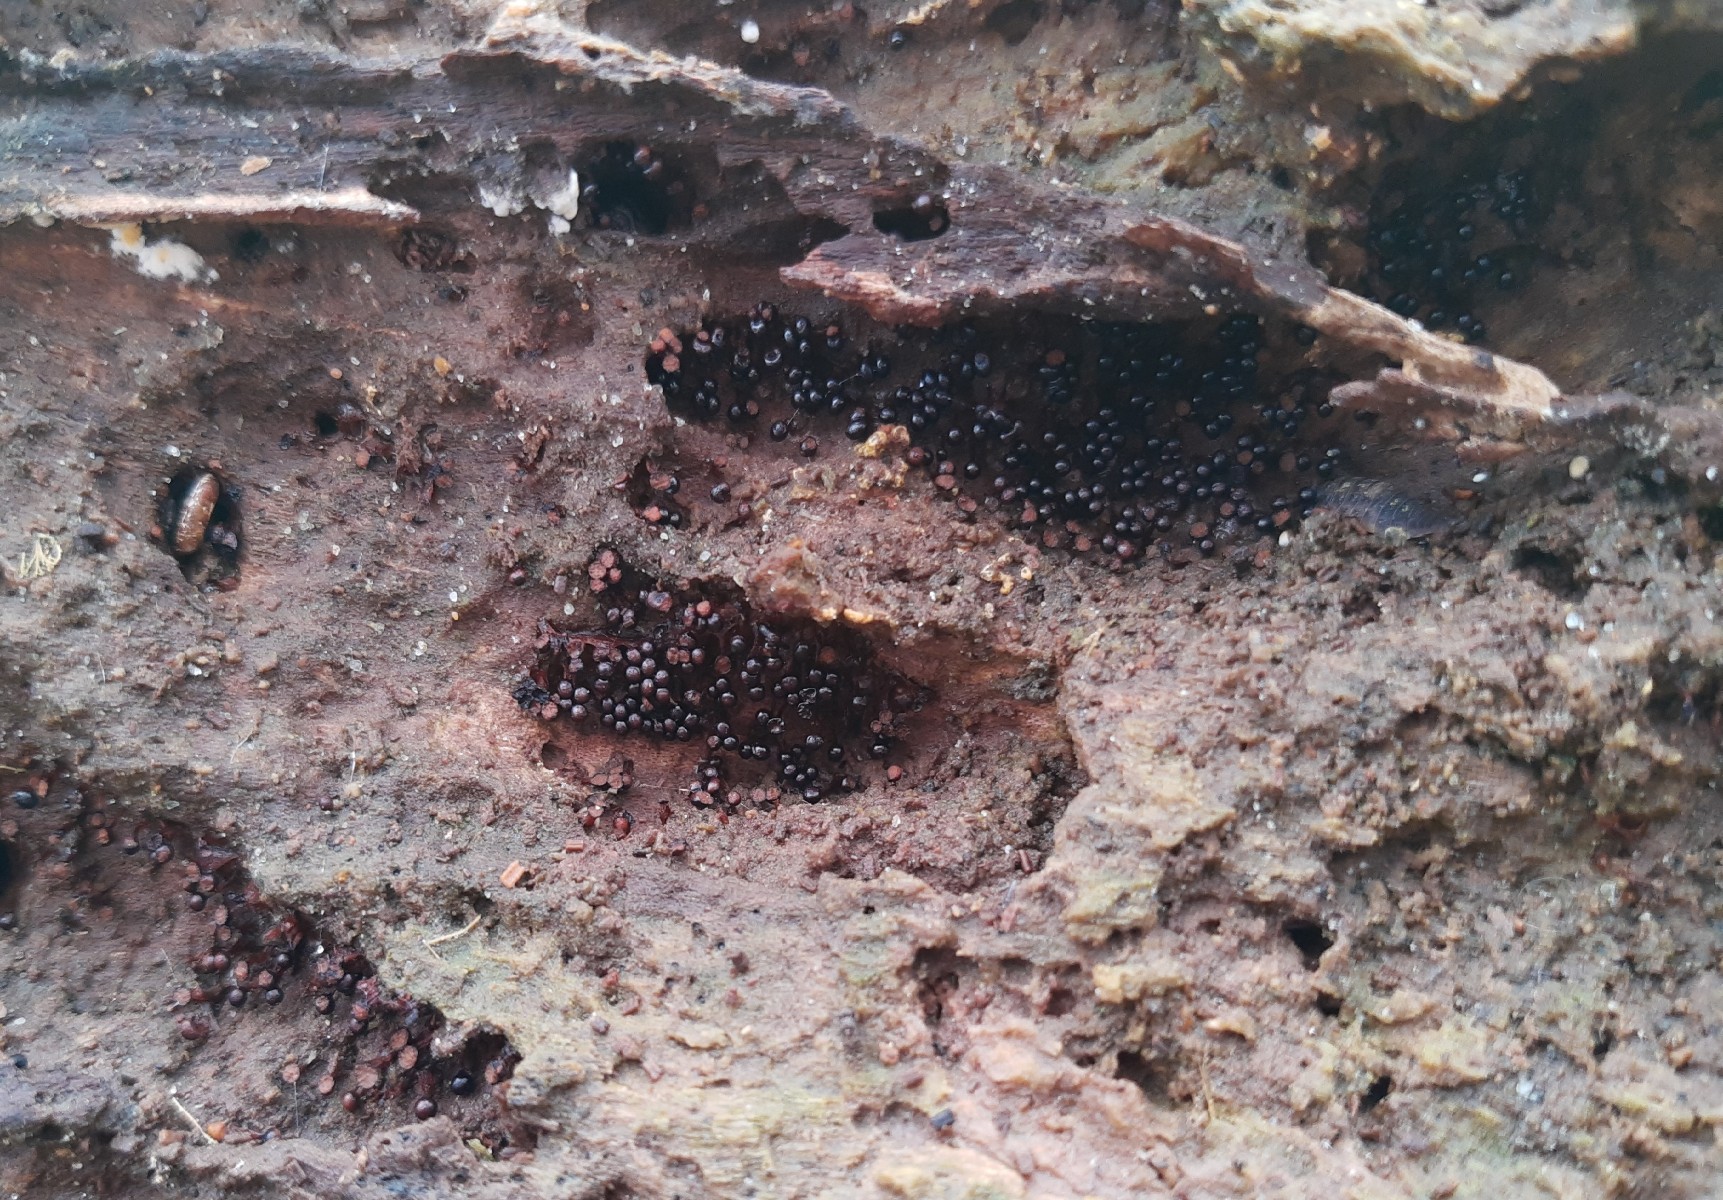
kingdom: Protozoa
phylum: Mycetozoa
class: Myxomycetes
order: Trichiales
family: Trichiaceae
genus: Metatrichia
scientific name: Metatrichia floriformis
